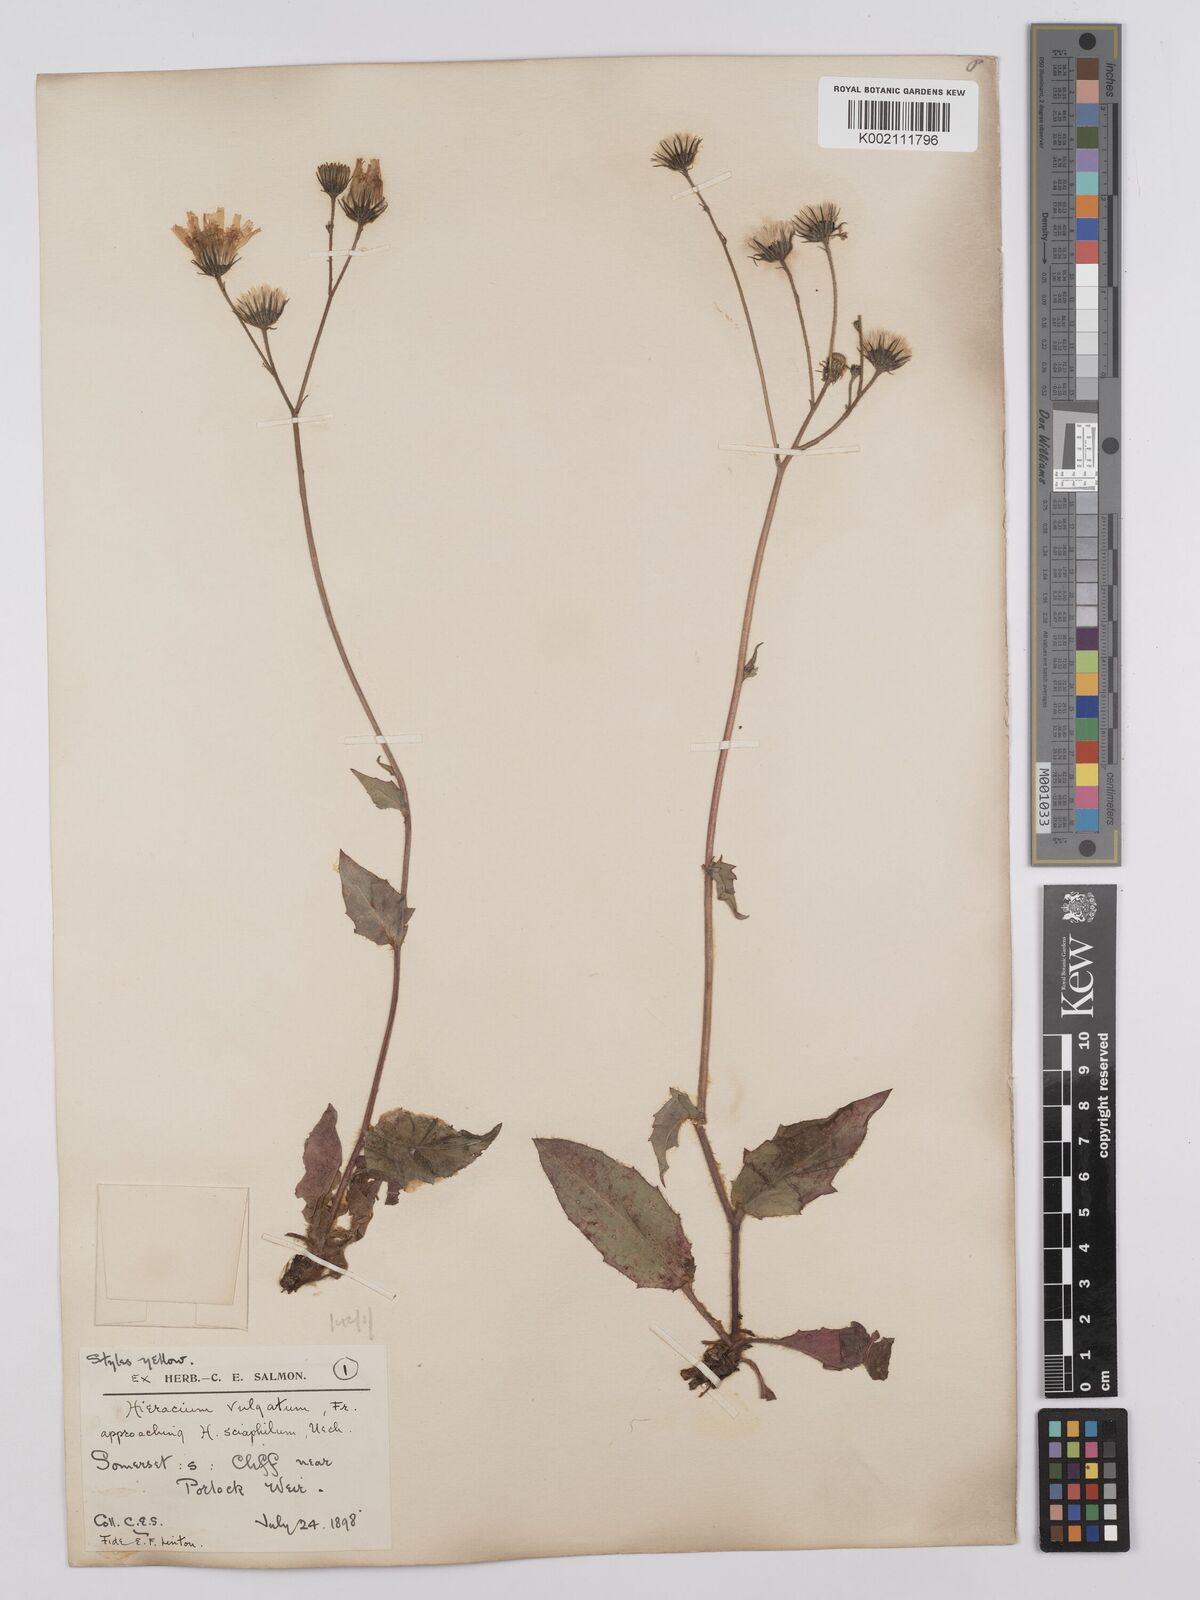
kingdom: Plantae
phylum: Tracheophyta
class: Magnoliopsida
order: Asterales
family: Asteraceae
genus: Hieracium
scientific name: Hieracium lachenalii
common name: Common hawkweed
